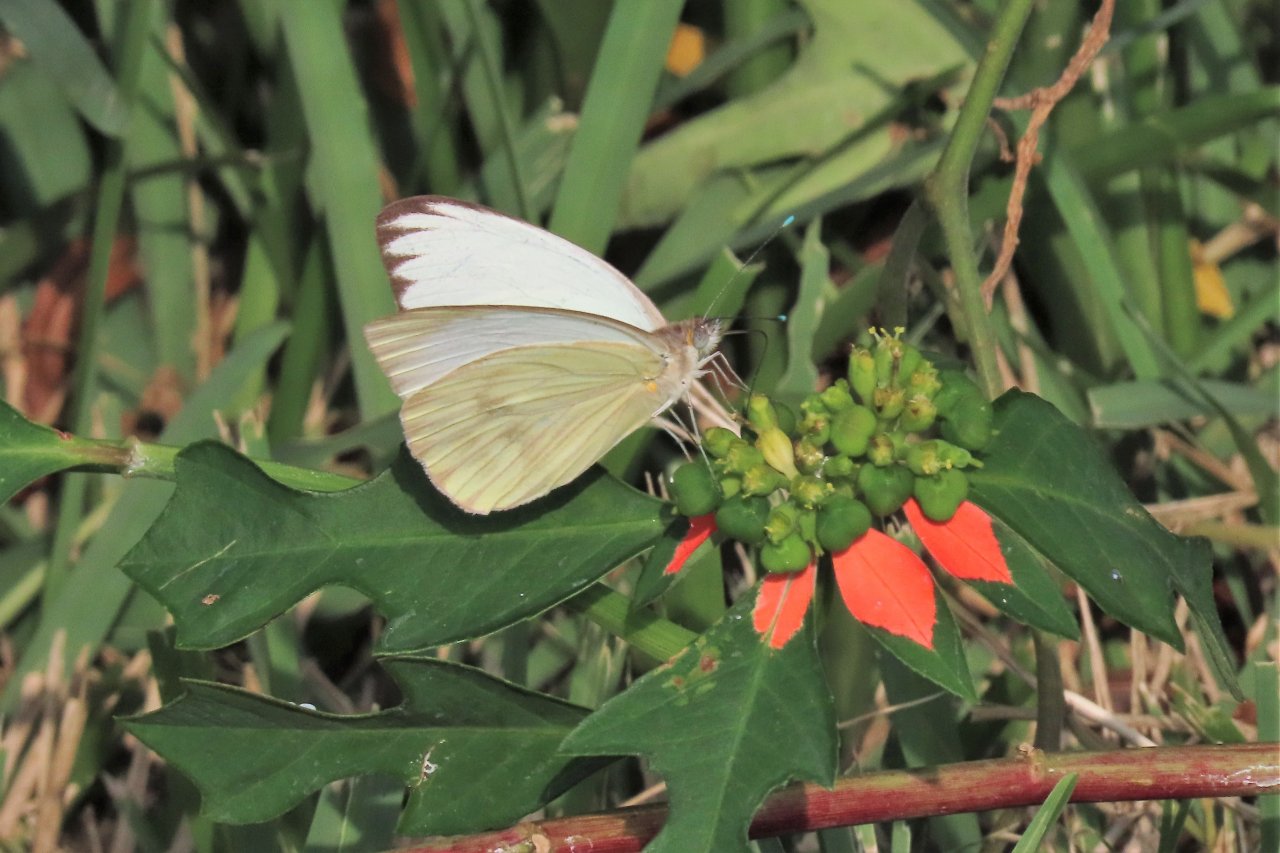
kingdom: Animalia
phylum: Arthropoda
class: Insecta
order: Lepidoptera
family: Pieridae
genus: Ascia
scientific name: Ascia monuste
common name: Great Southern White
